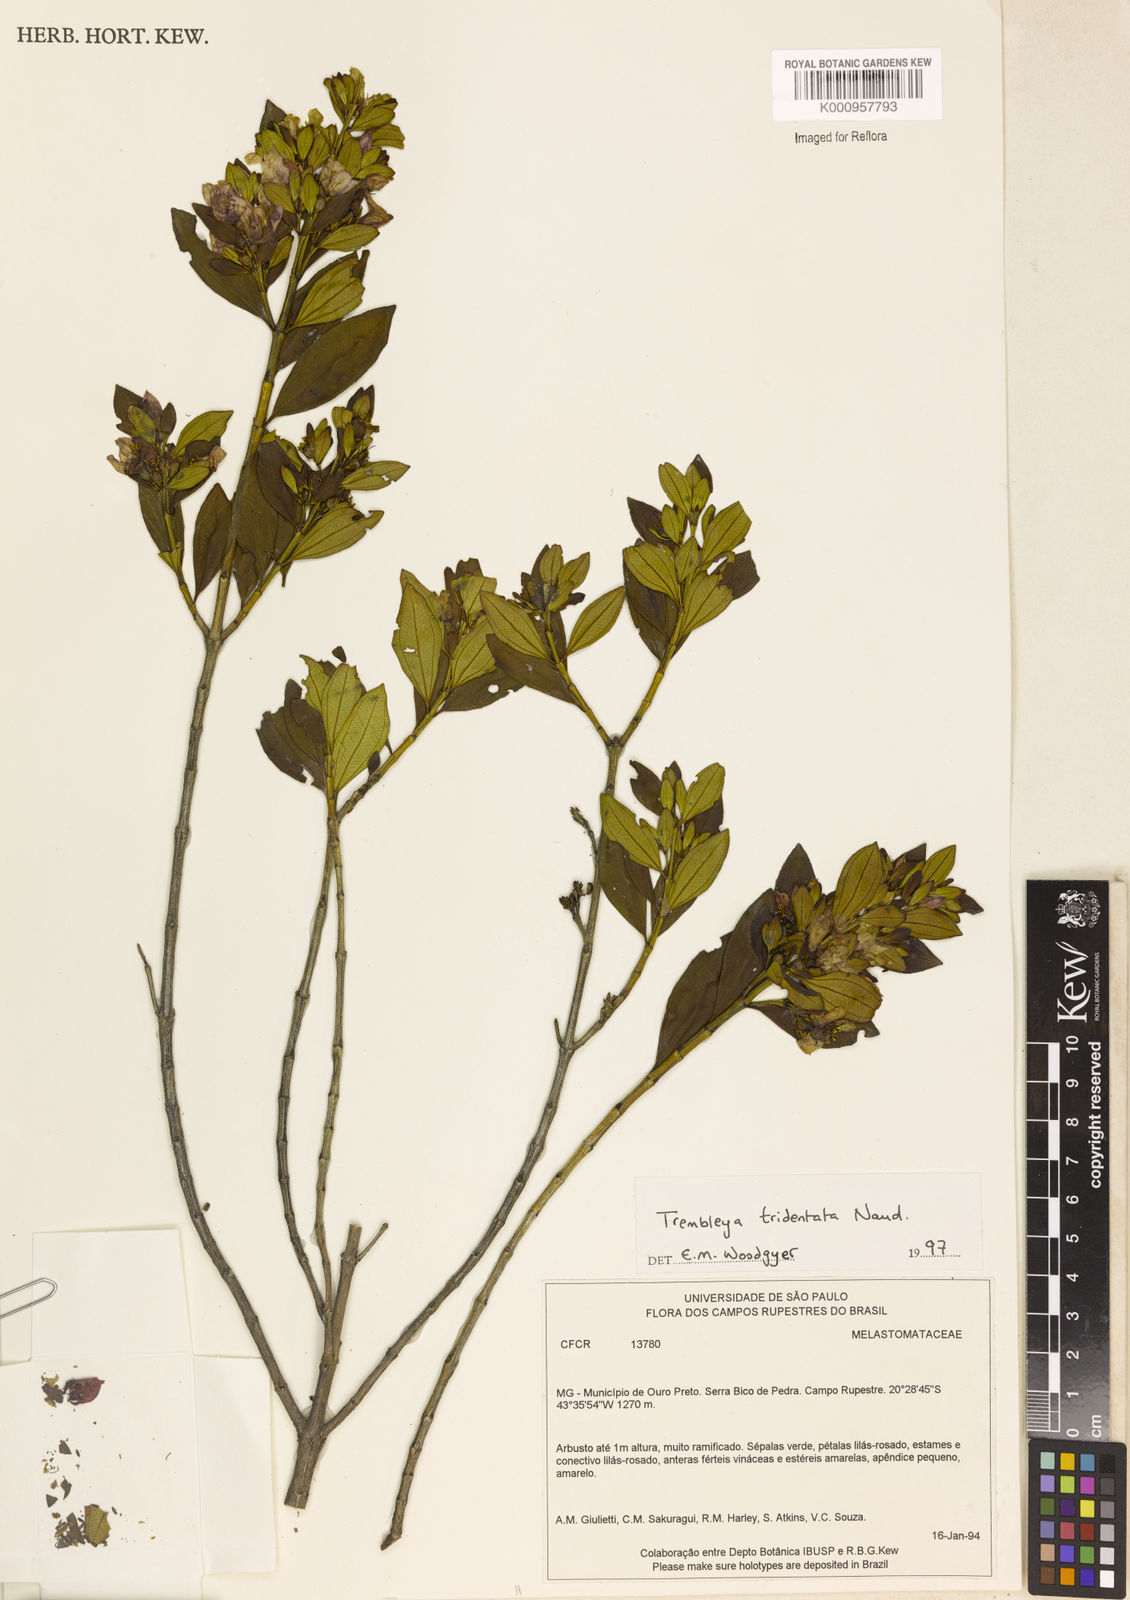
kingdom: Plantae
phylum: Tracheophyta
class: Magnoliopsida
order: Myrtales
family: Melastomataceae
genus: Microlicia
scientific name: Microlicia tridentata
